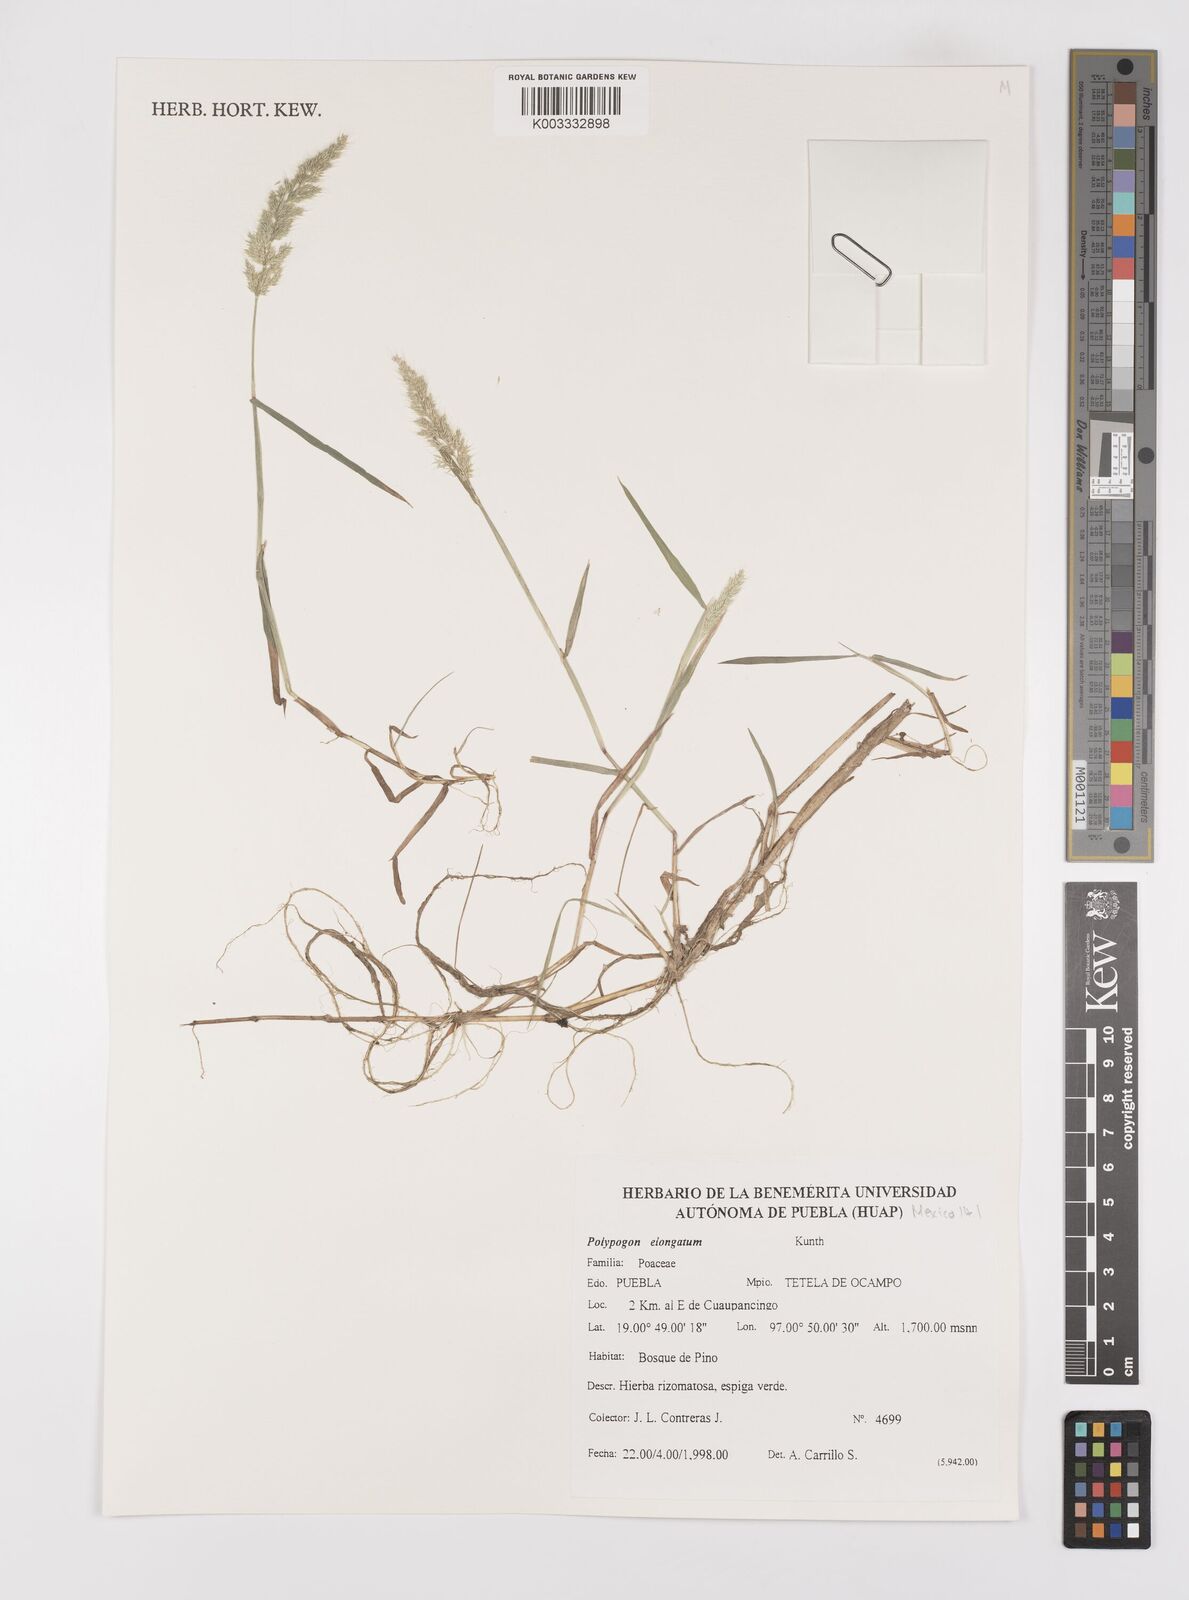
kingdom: Plantae
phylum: Tracheophyta
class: Liliopsida
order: Poales
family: Poaceae
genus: Polypogon
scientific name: Polypogon elongatus
